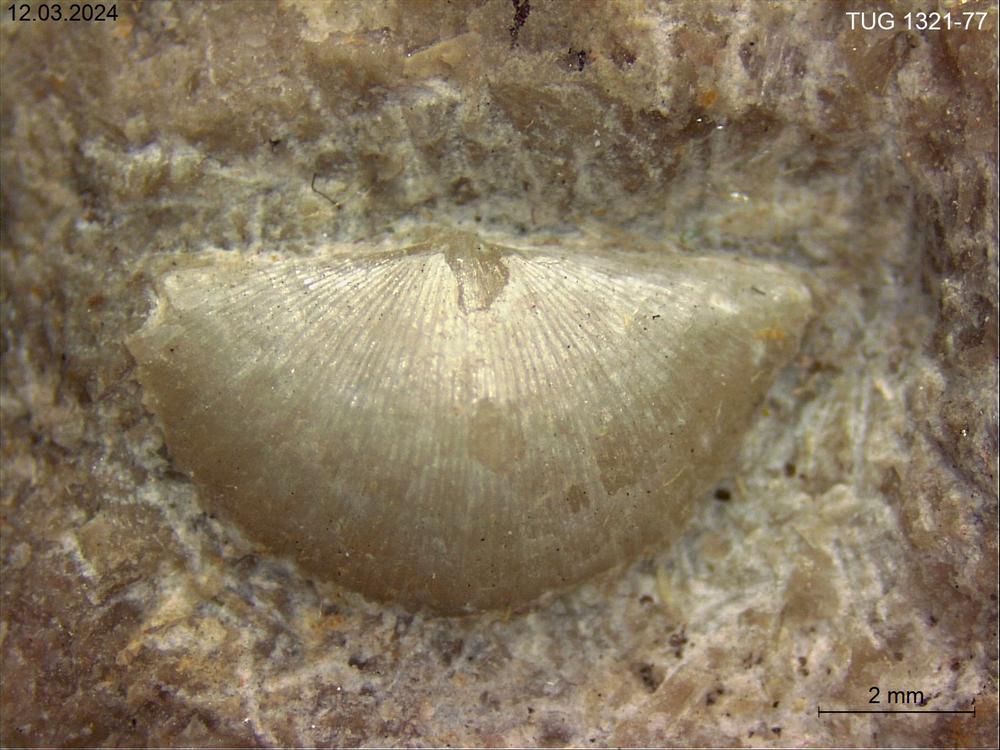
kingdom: Animalia
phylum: Brachiopoda
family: Sowerbyellidae
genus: Sowerbyella
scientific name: Sowerbyella orvikui
